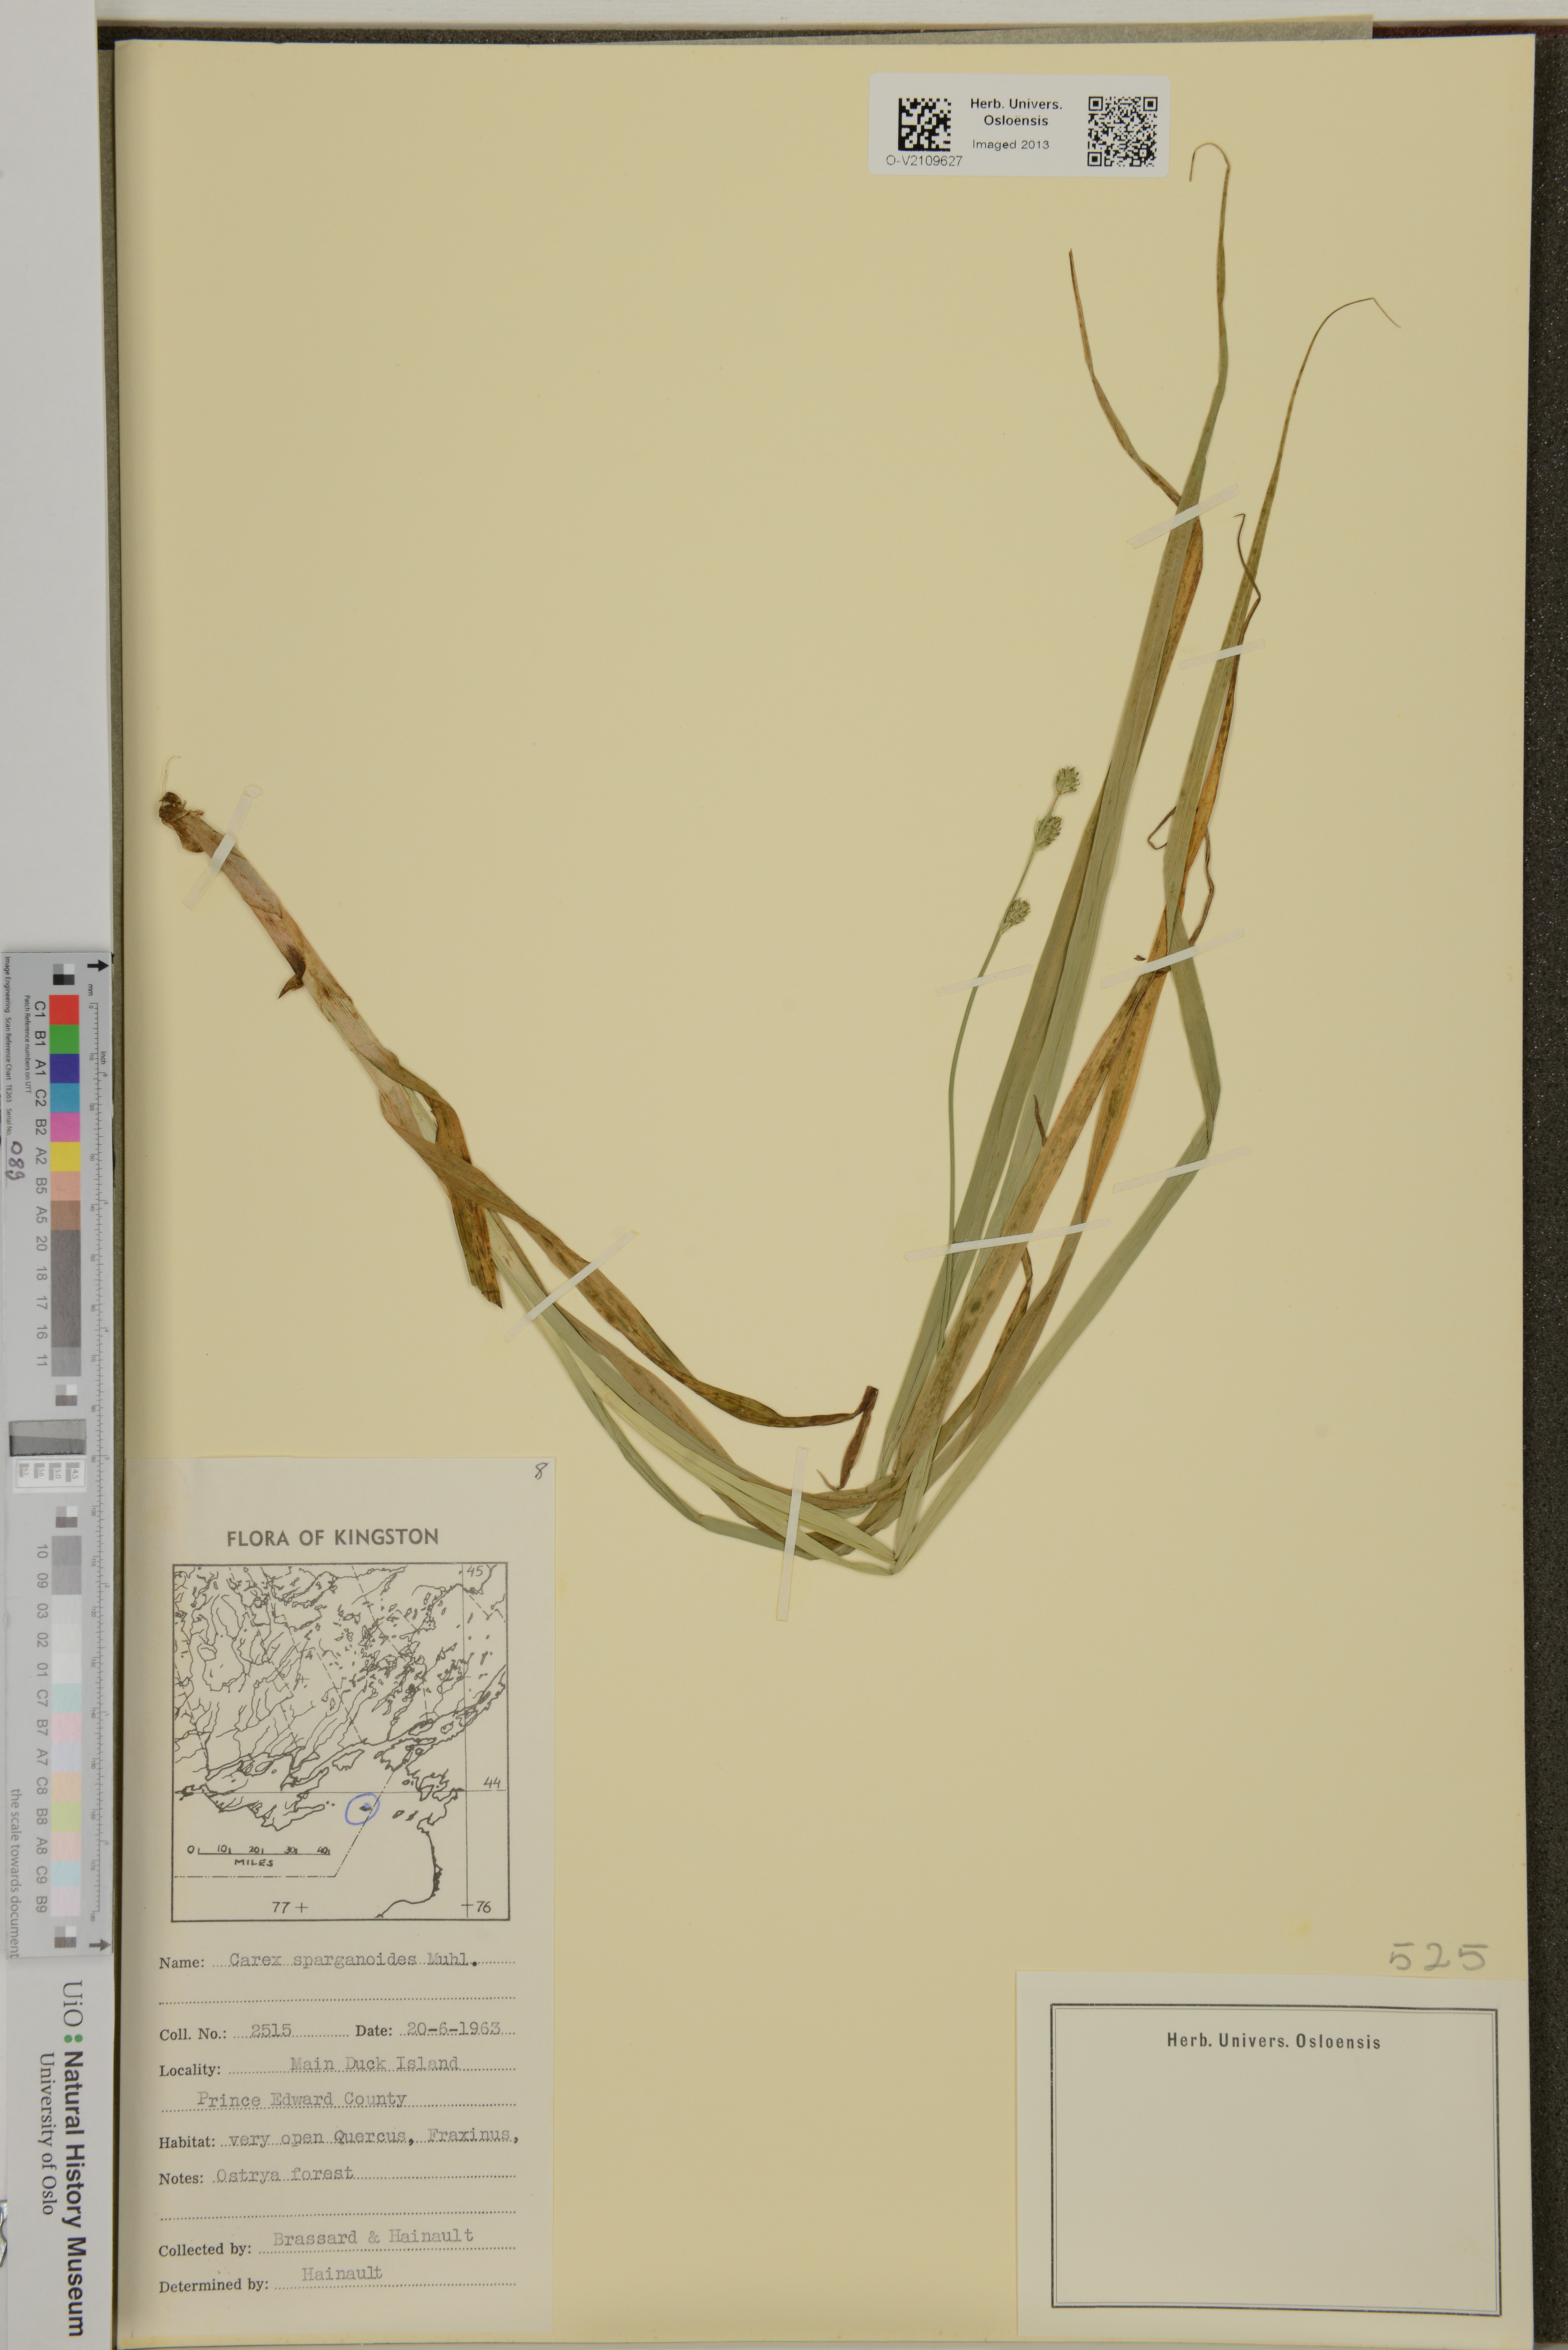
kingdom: Plantae
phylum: Tracheophyta
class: Liliopsida
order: Poales
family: Cyperaceae
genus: Carex
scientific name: Carex sparganioides
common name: Burreed sedge
